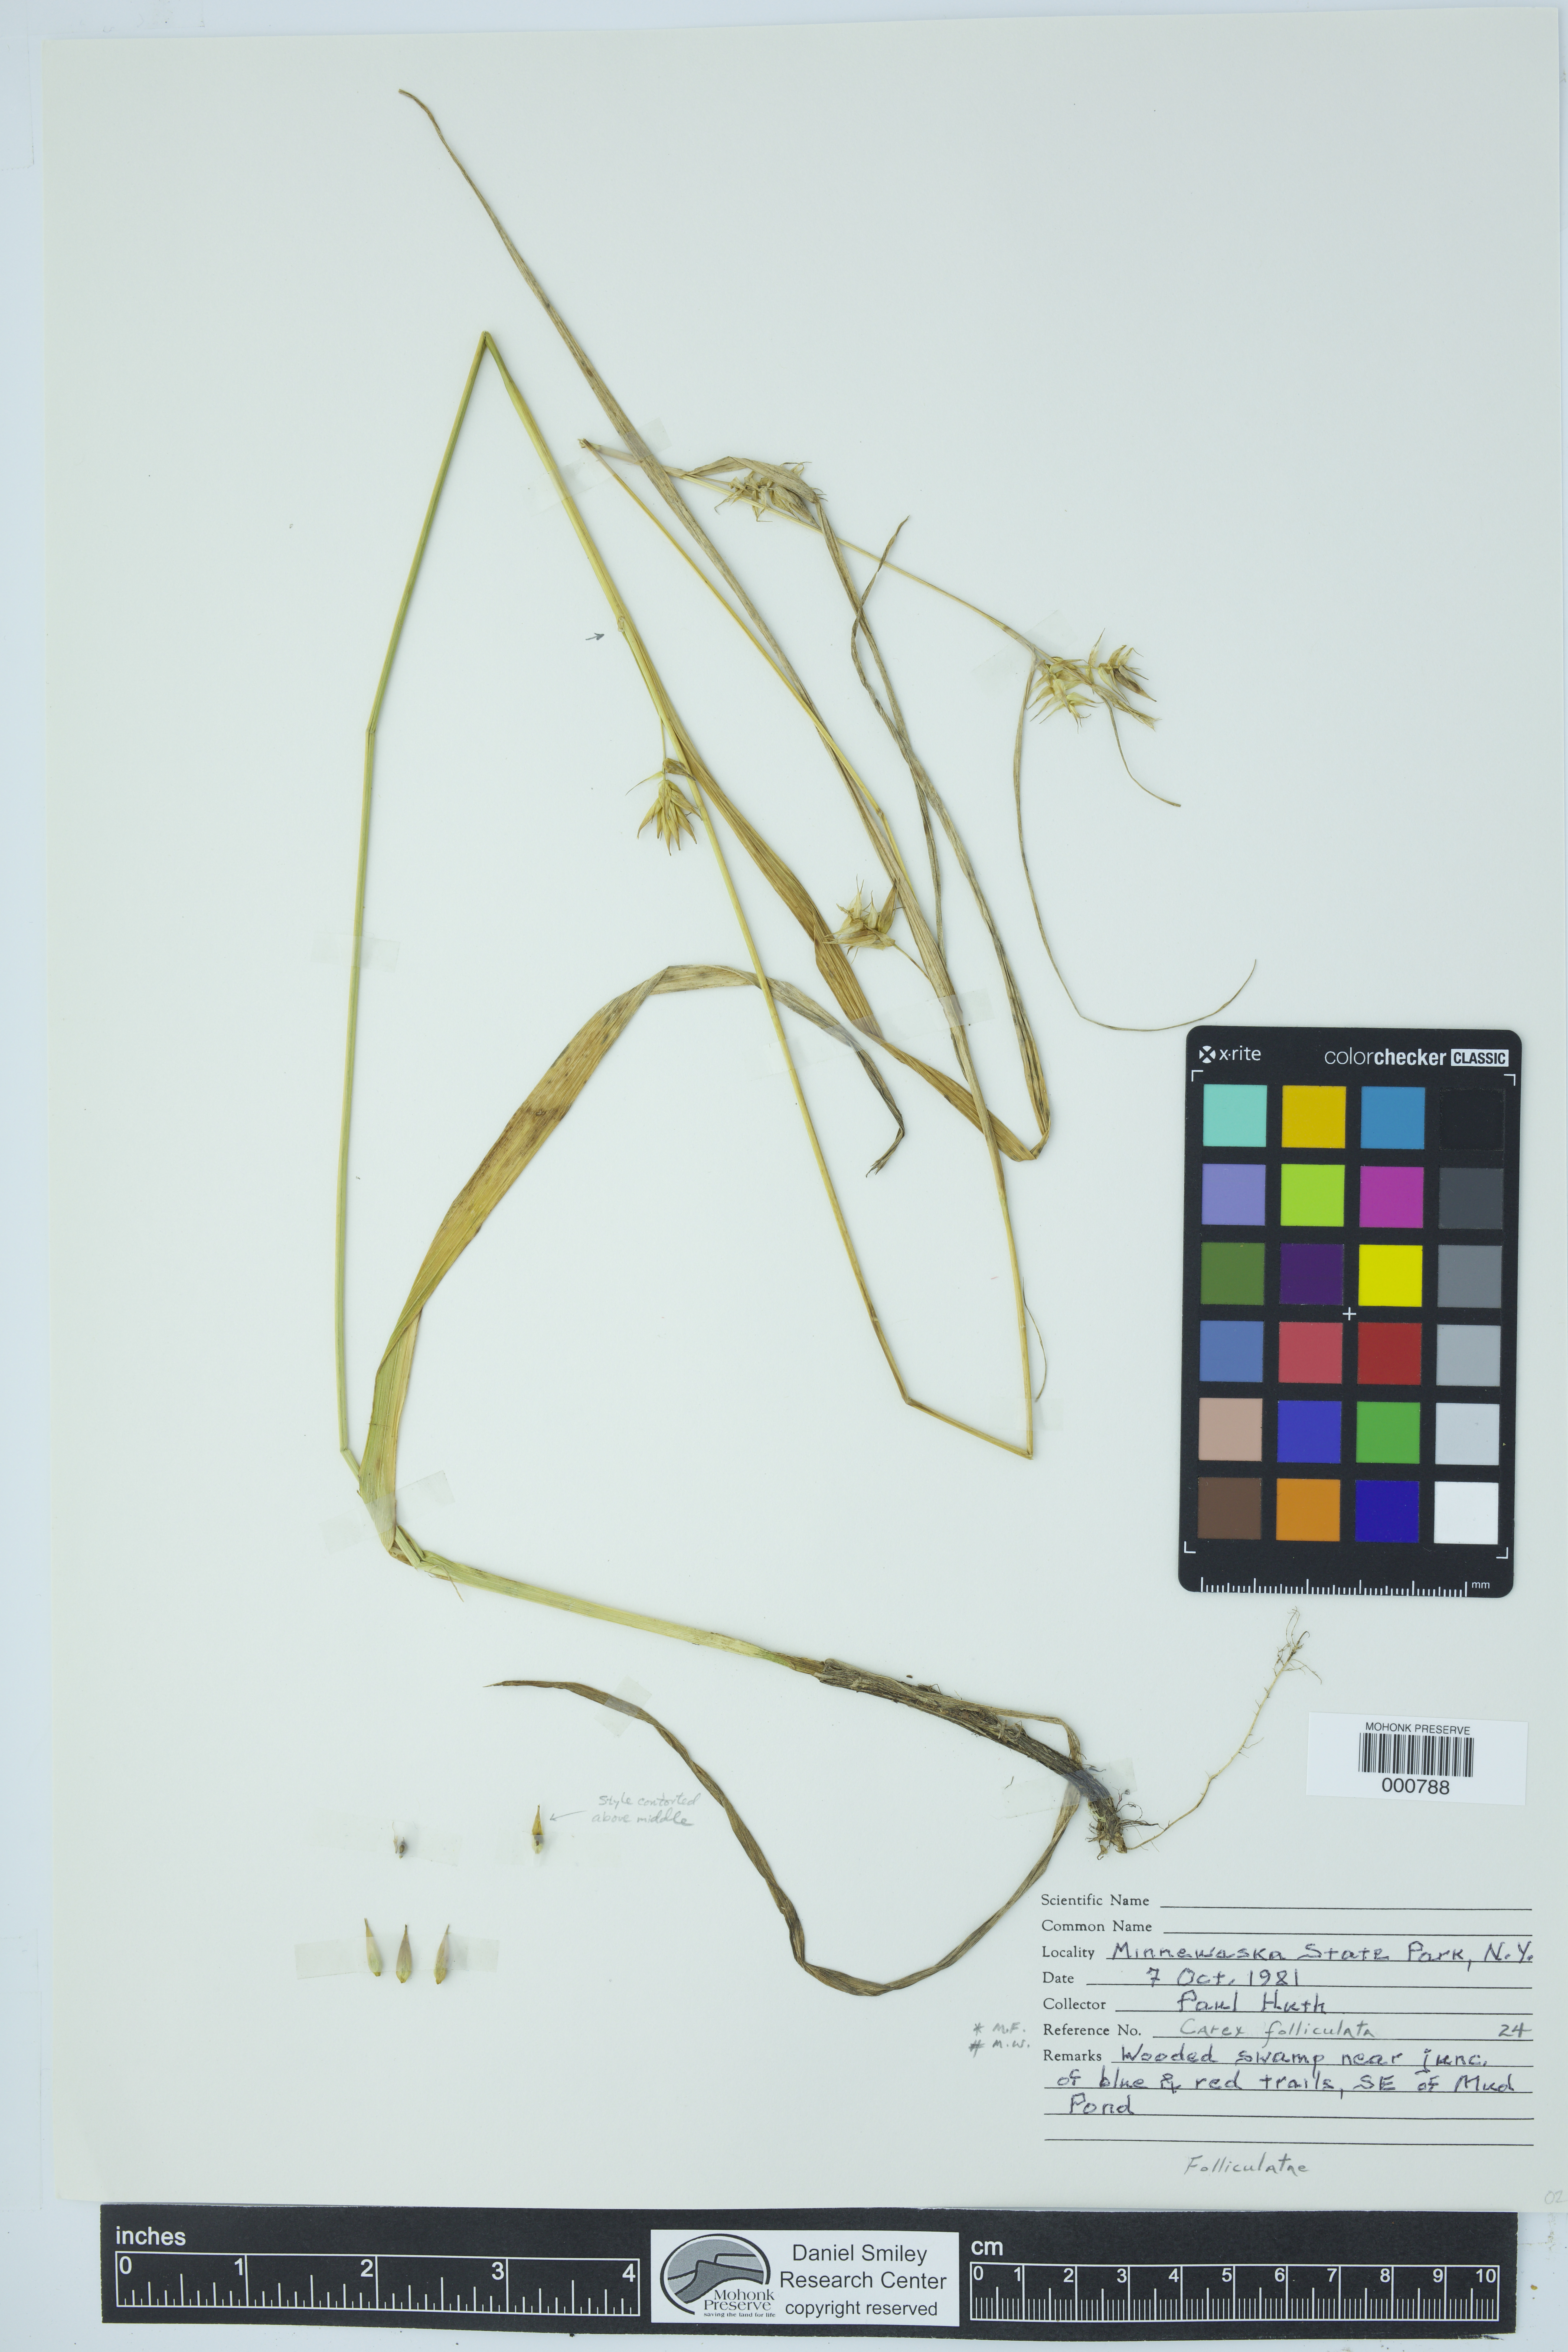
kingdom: Plantae
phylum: Tracheophyta
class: Liliopsida
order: Poales
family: Cyperaceae
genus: Carex
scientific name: Carex folliculata
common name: Northern long sedge
